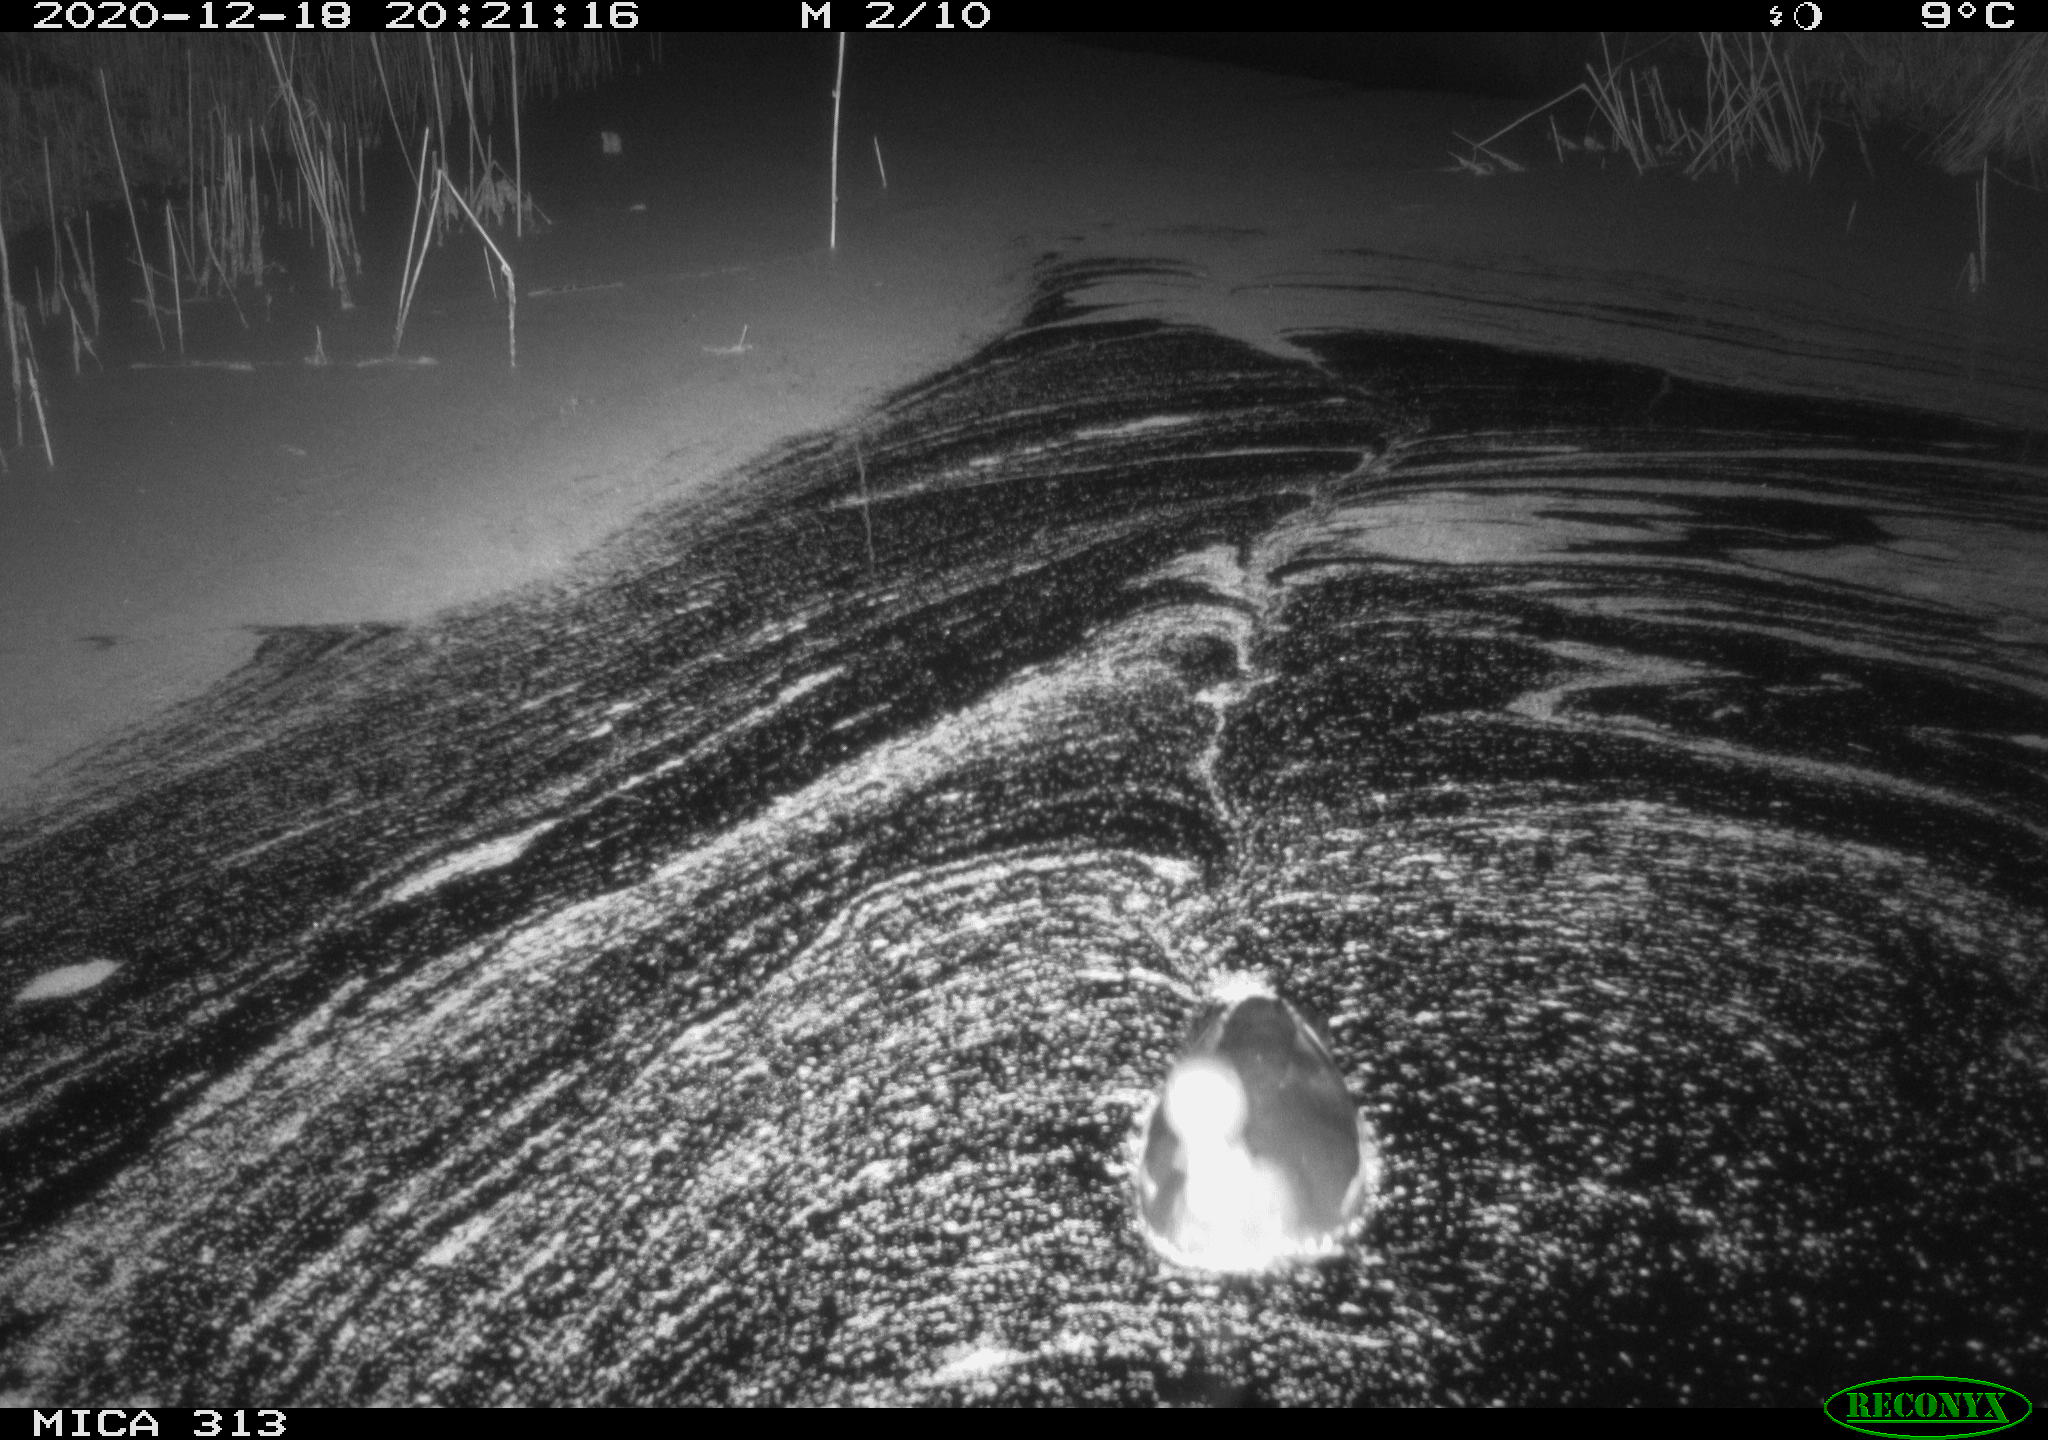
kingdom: Animalia
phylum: Chordata
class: Aves
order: Gruiformes
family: Rallidae
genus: Gallinula
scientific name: Gallinula chloropus
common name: Common moorhen
